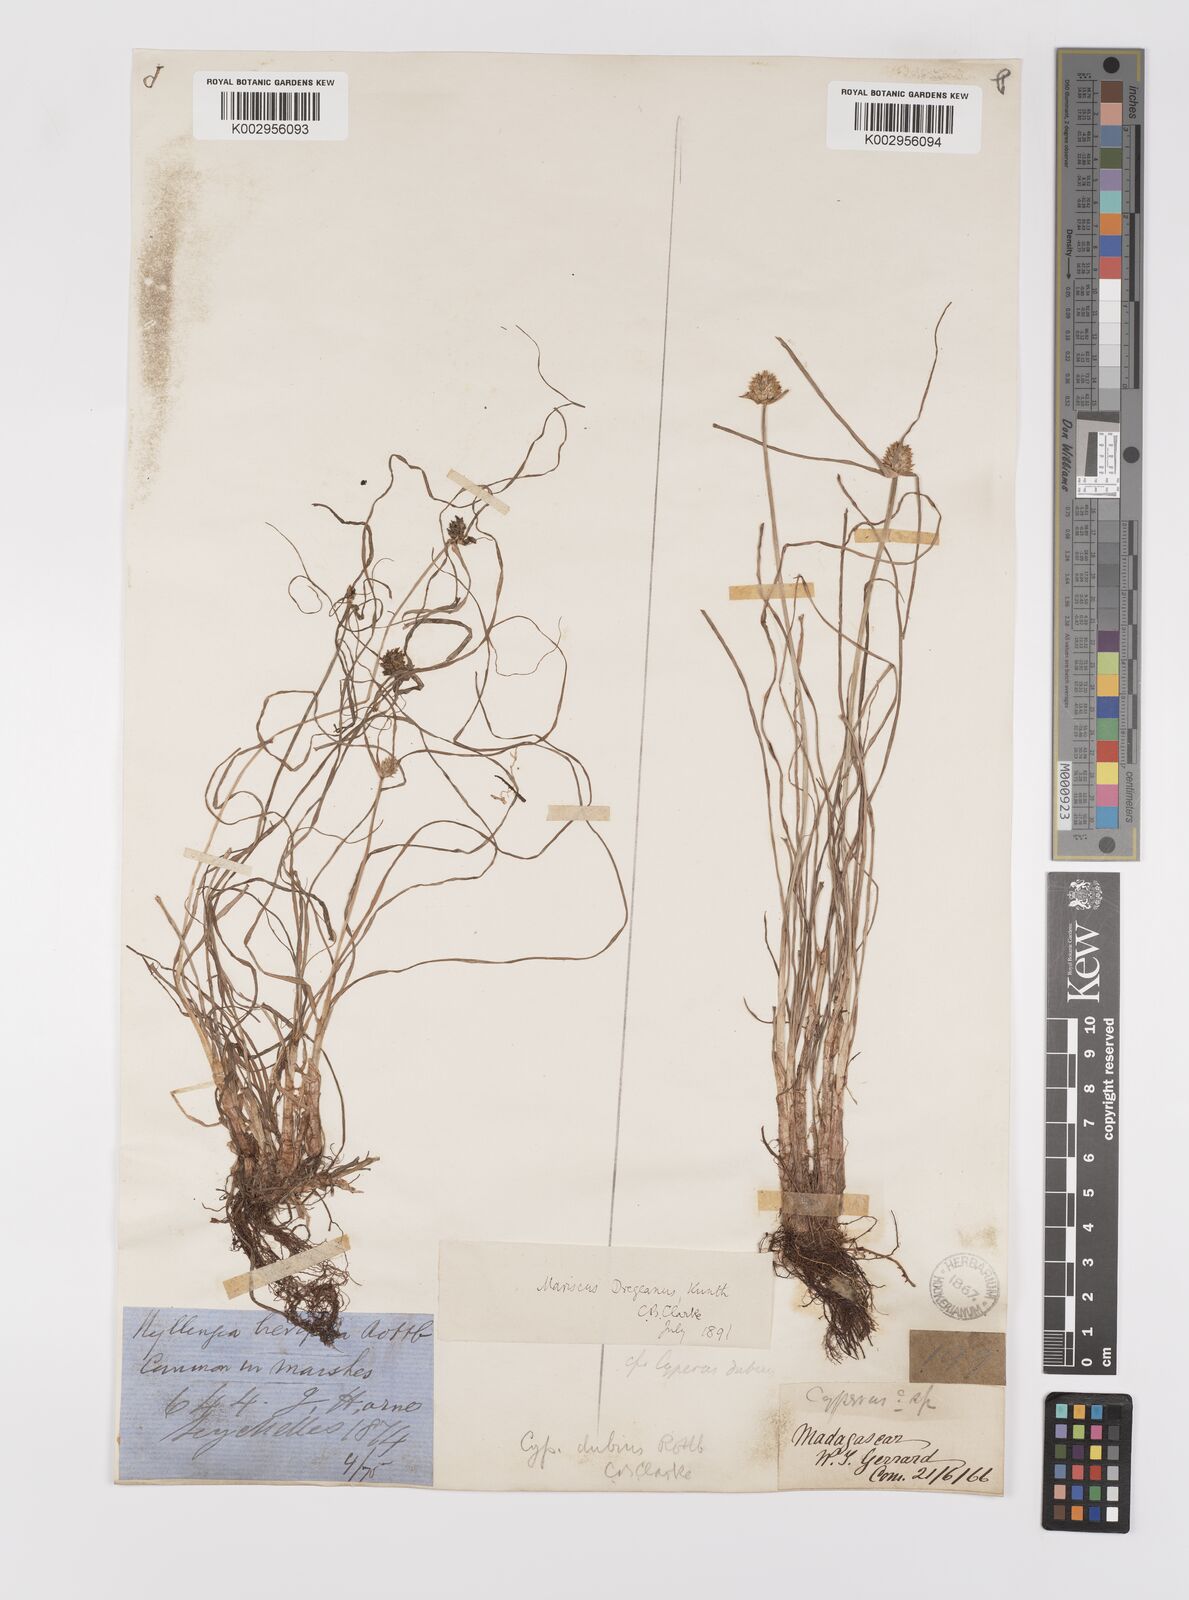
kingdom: Plantae
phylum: Tracheophyta
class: Liliopsida
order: Poales
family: Cyperaceae
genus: Cyperus
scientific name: Cyperus dubius
